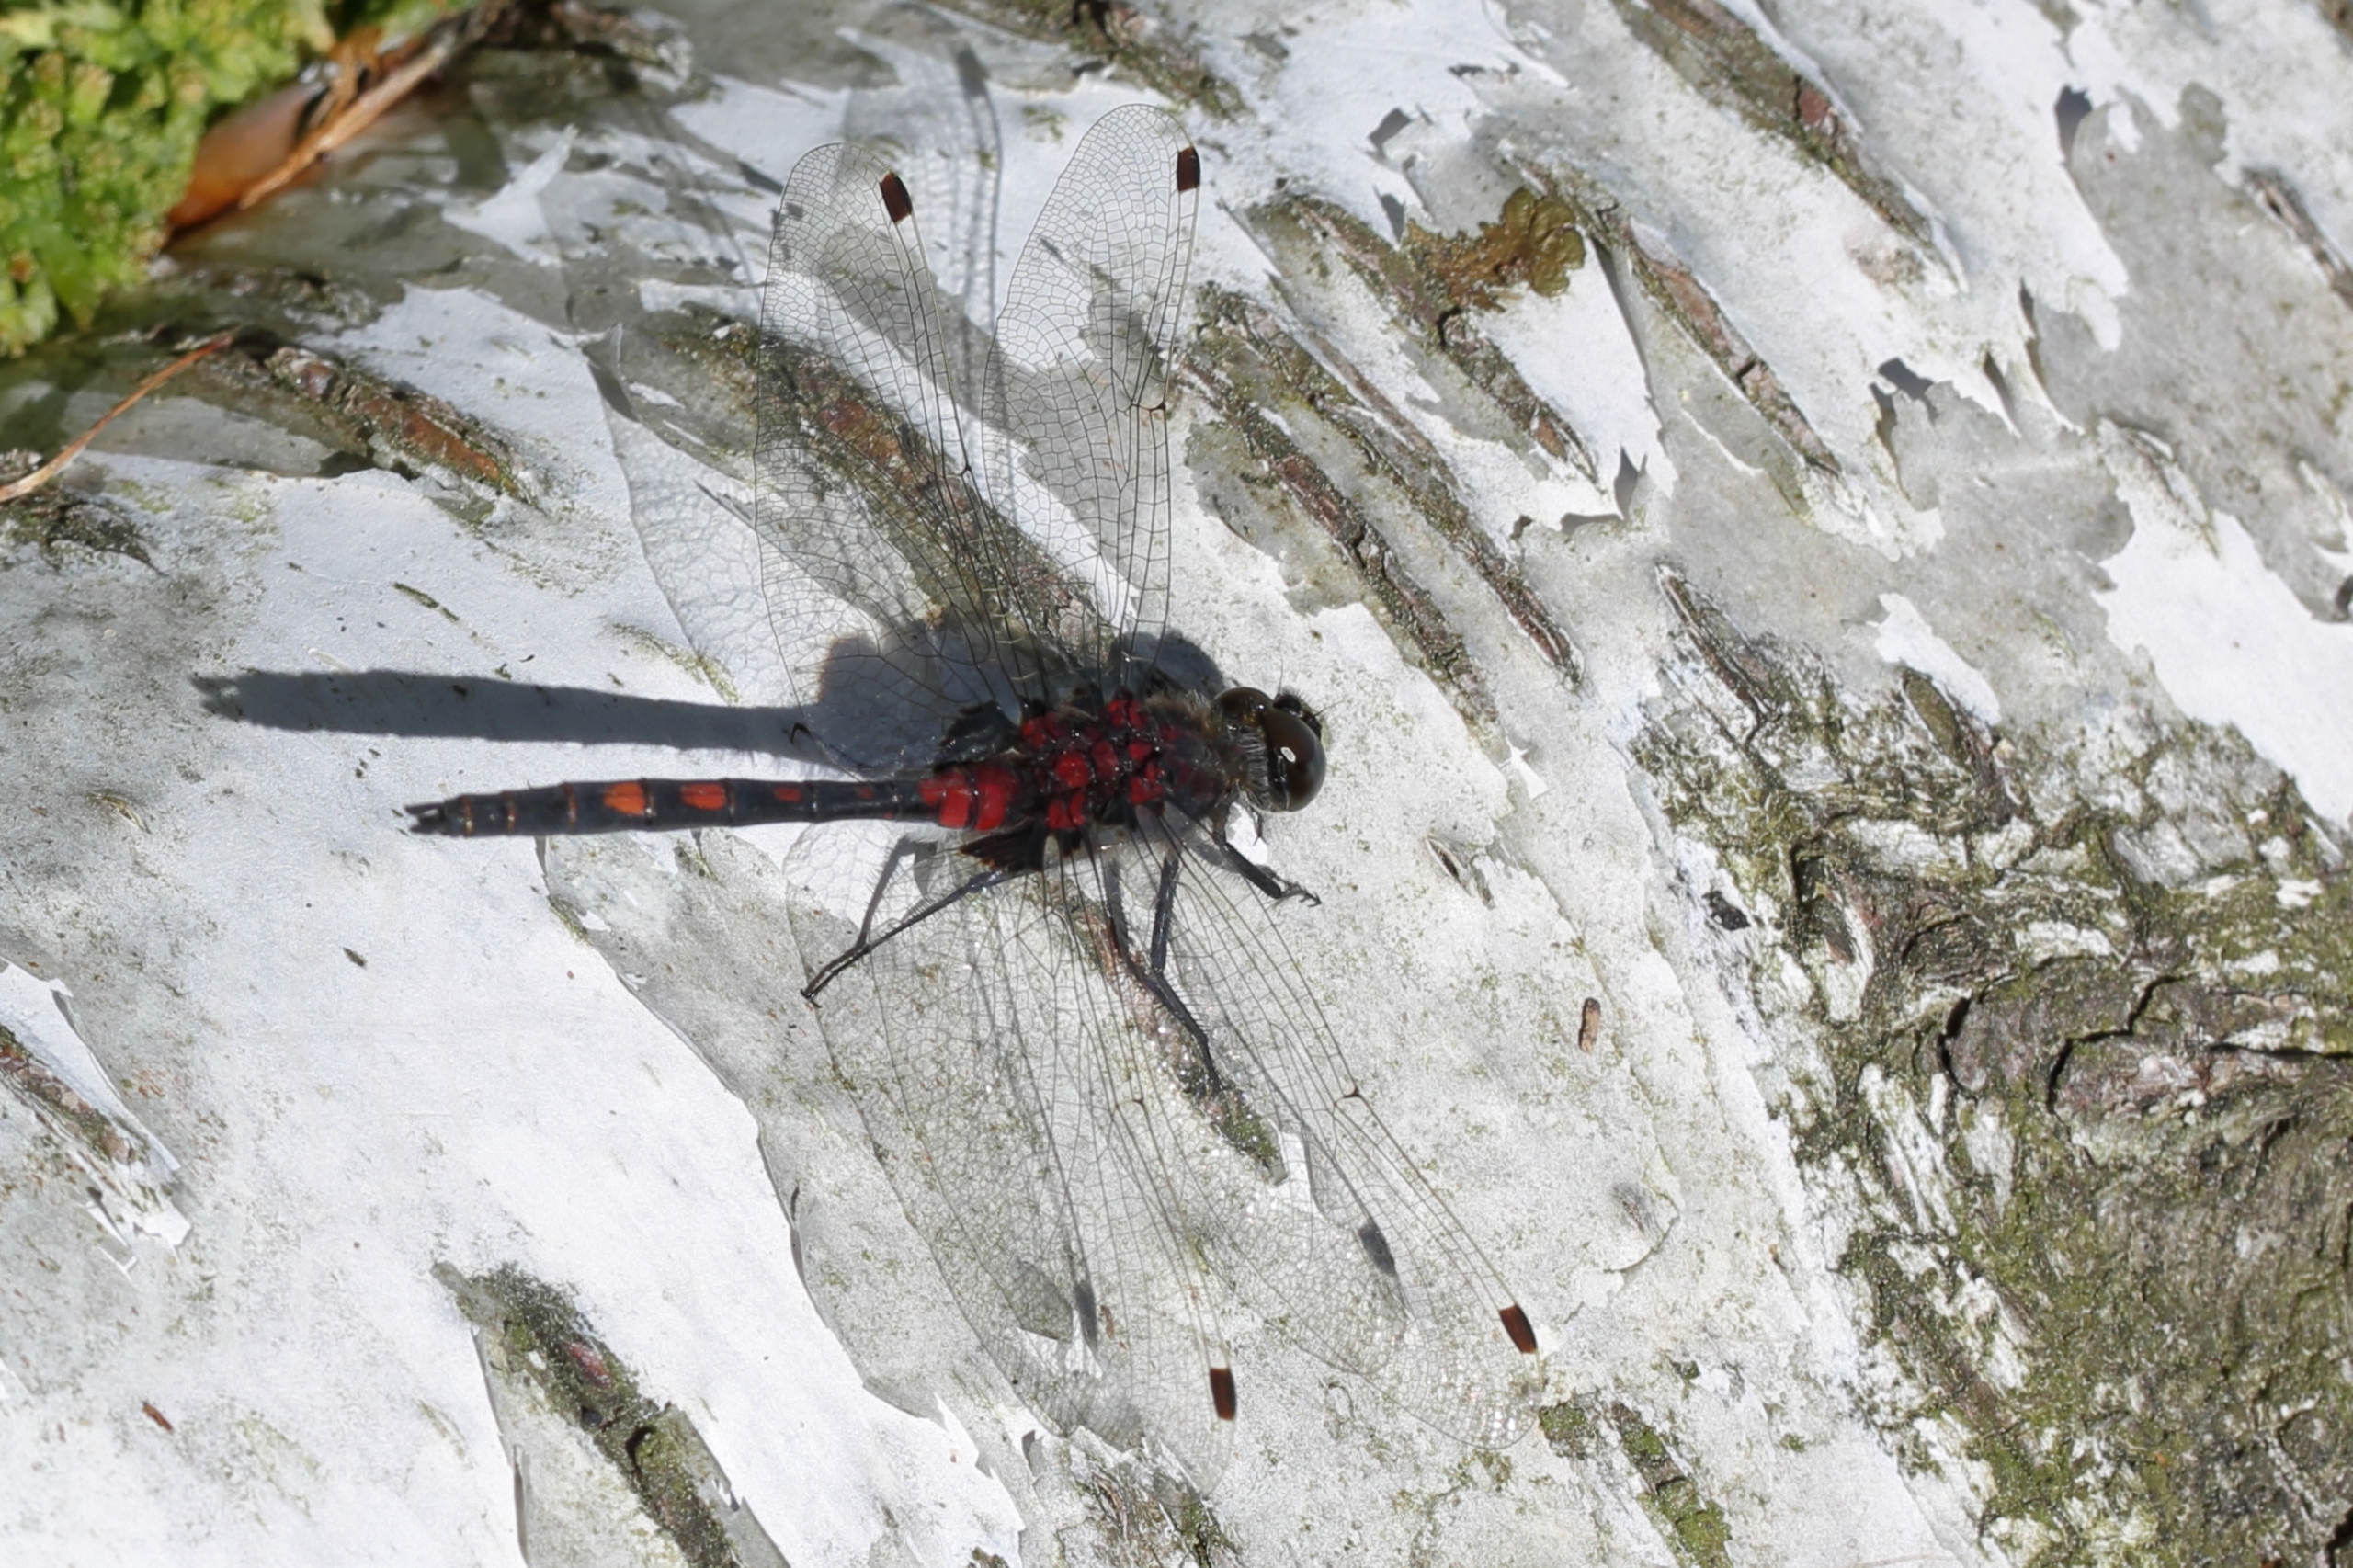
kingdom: Animalia
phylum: Arthropoda
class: Insecta
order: Odonata
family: Libellulidae
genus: Leucorrhinia
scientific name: Leucorrhinia dubia
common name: Lille kærguldsmed
